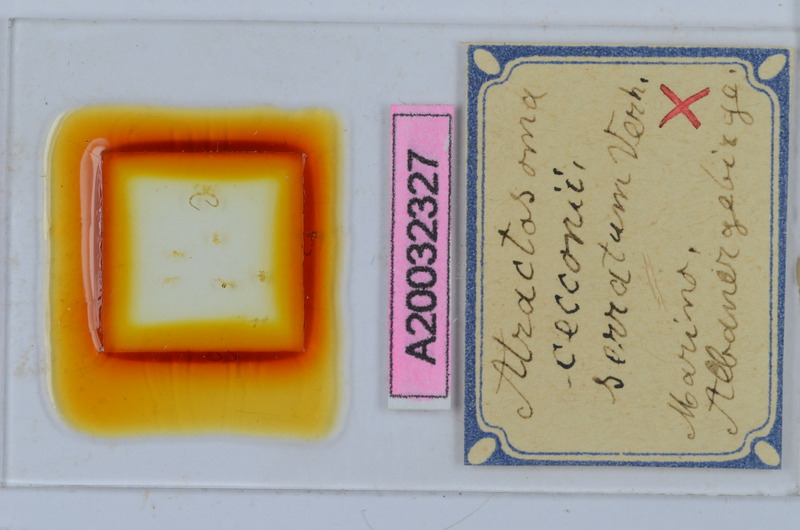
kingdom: Animalia
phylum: Arthropoda
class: Diplopoda
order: Chordeumatida
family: Craspedosomatidae
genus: Atractosoma
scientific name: Atractosoma cecconii
